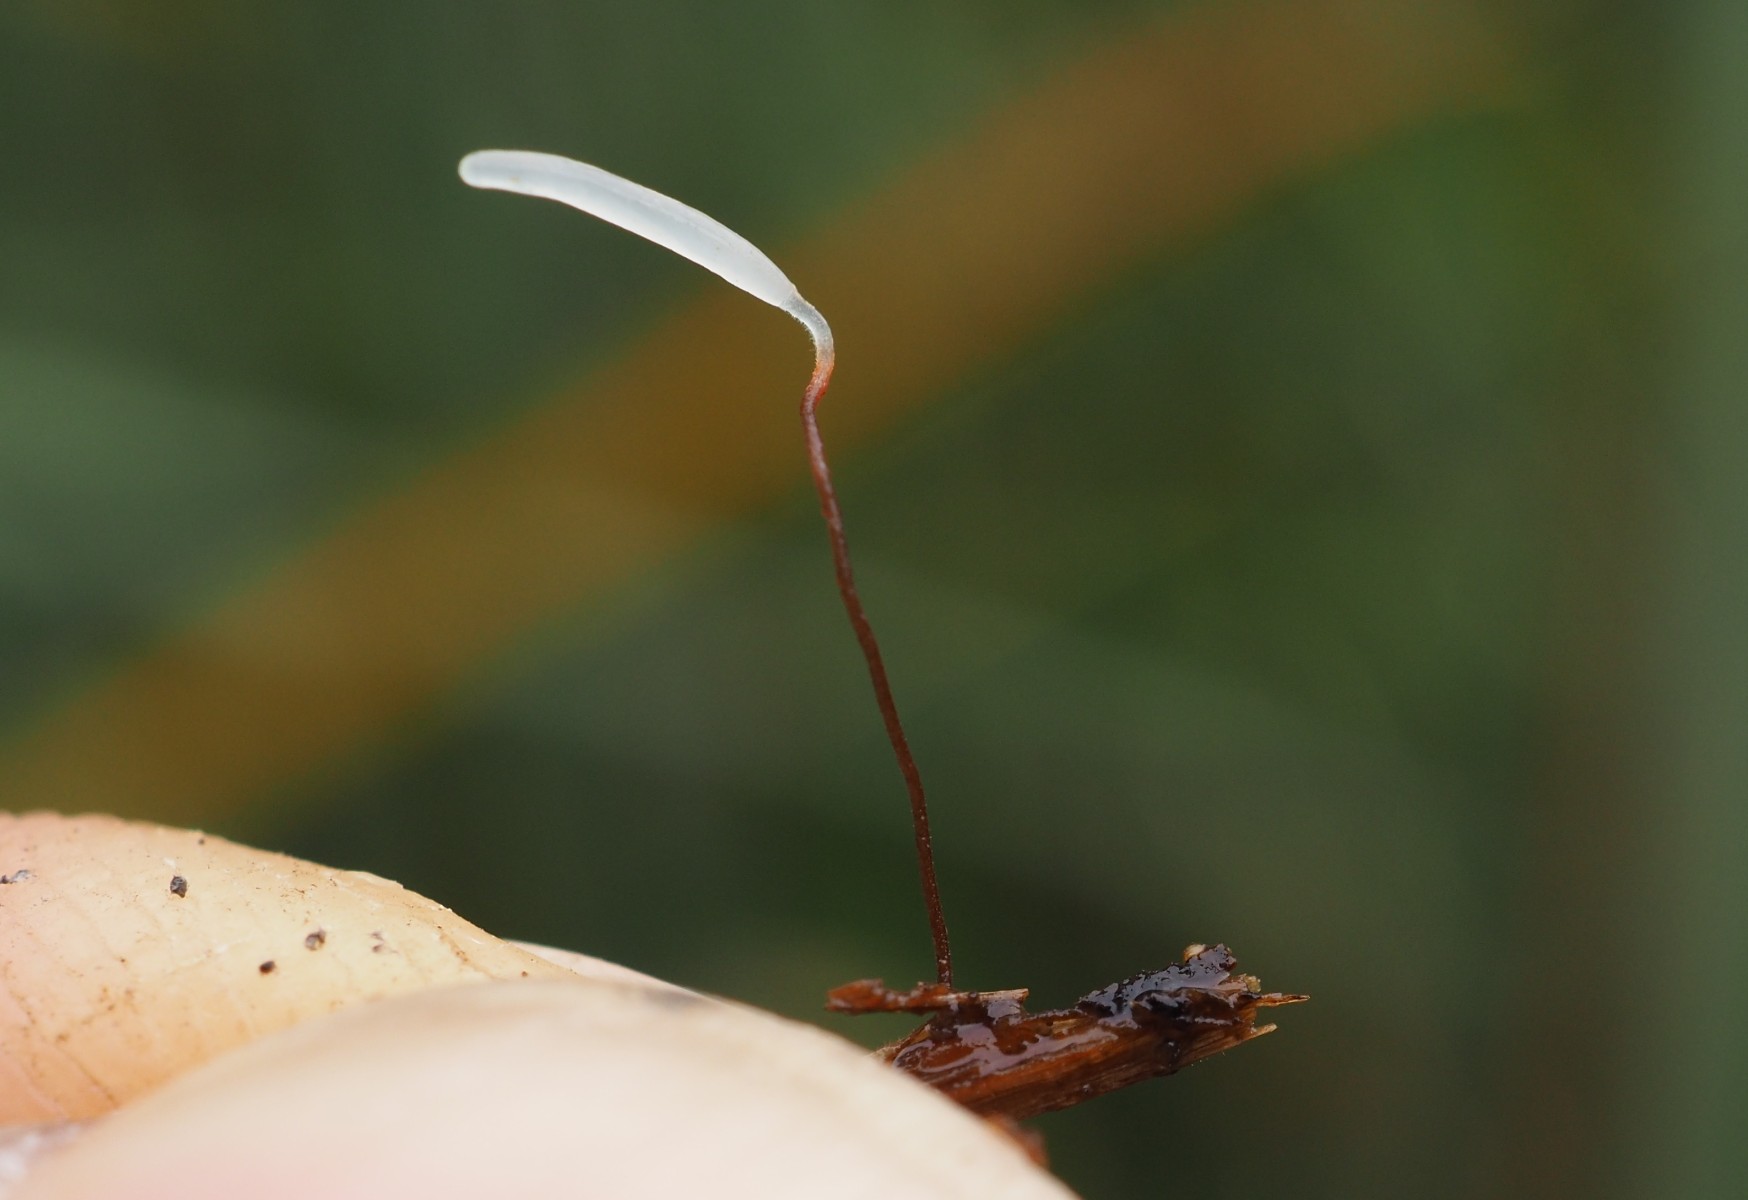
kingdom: Fungi
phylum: Basidiomycota
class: Agaricomycetes
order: Agaricales
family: Typhulaceae
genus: Typhula
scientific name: Typhula erythropus
